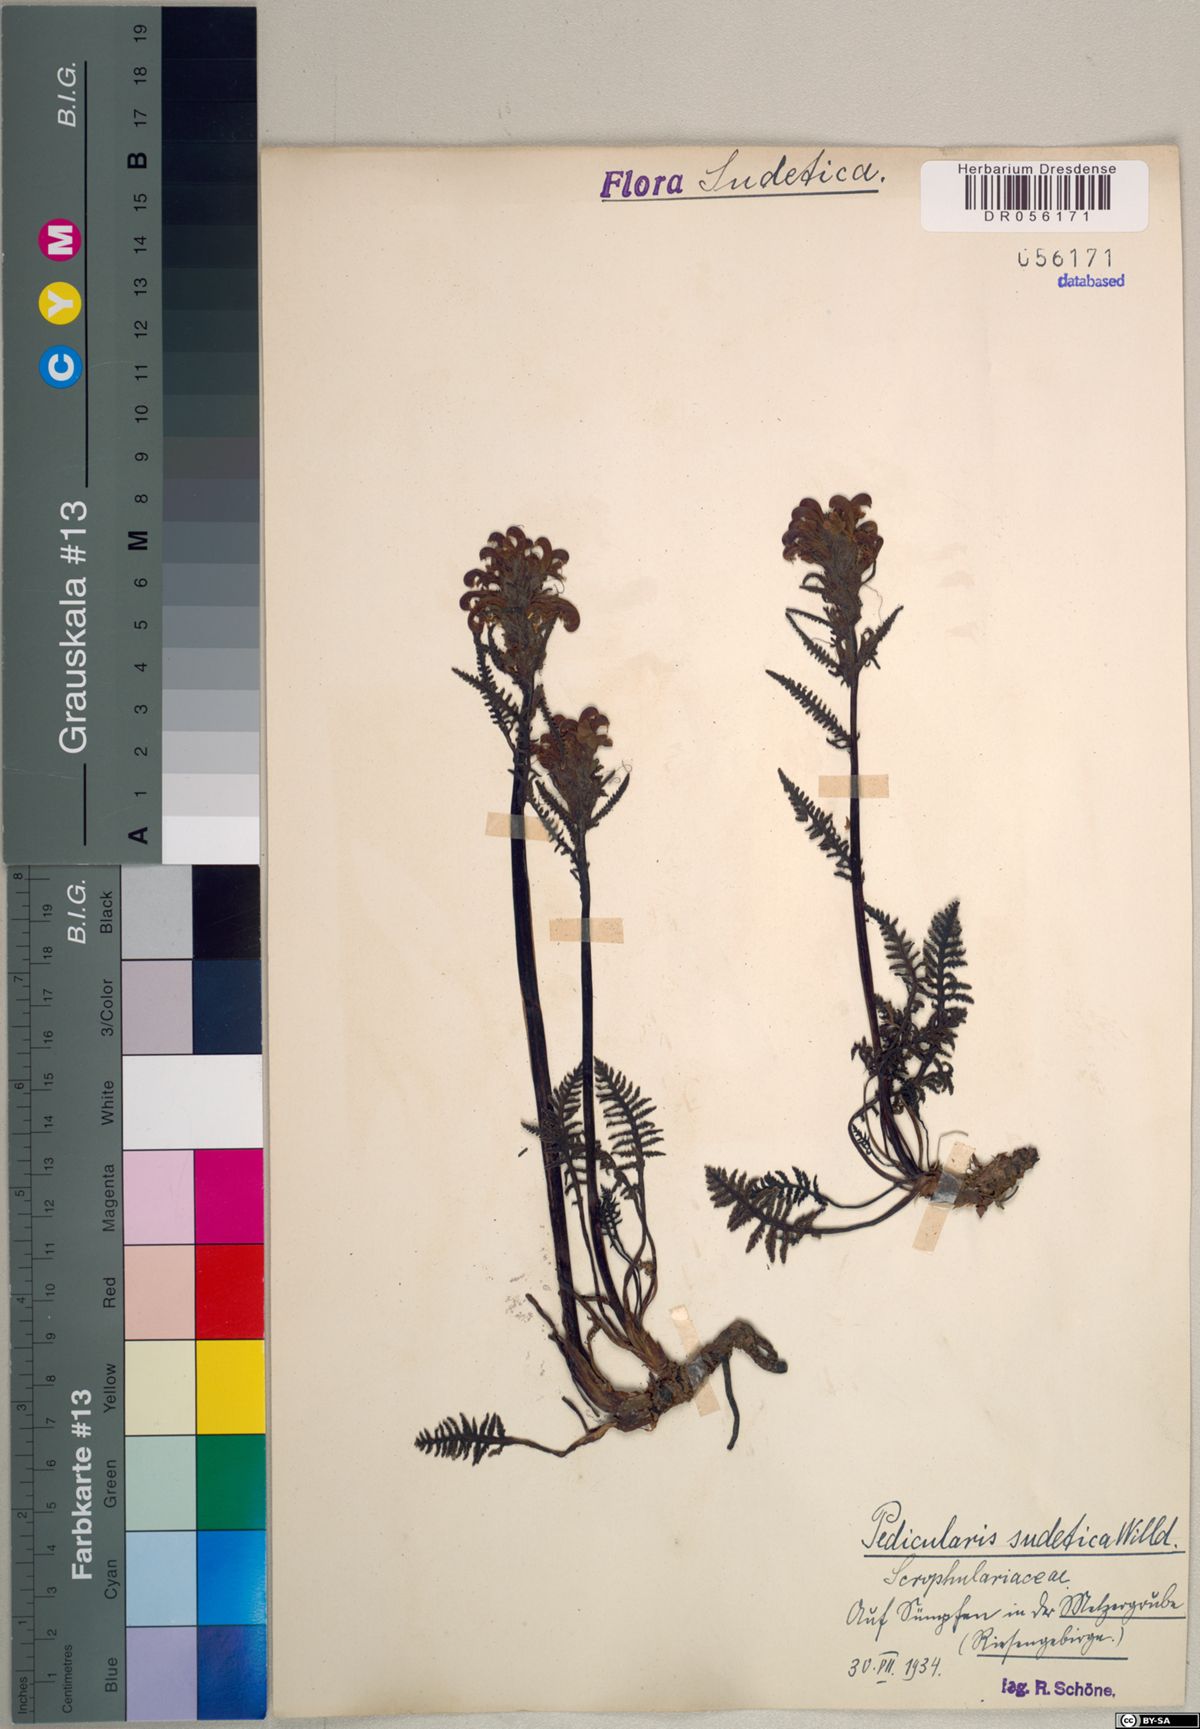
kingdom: Plantae
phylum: Tracheophyta
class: Magnoliopsida
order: Lamiales
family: Orobanchaceae
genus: Pedicularis
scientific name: Pedicularis sudetica
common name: Sudeten lousewort
